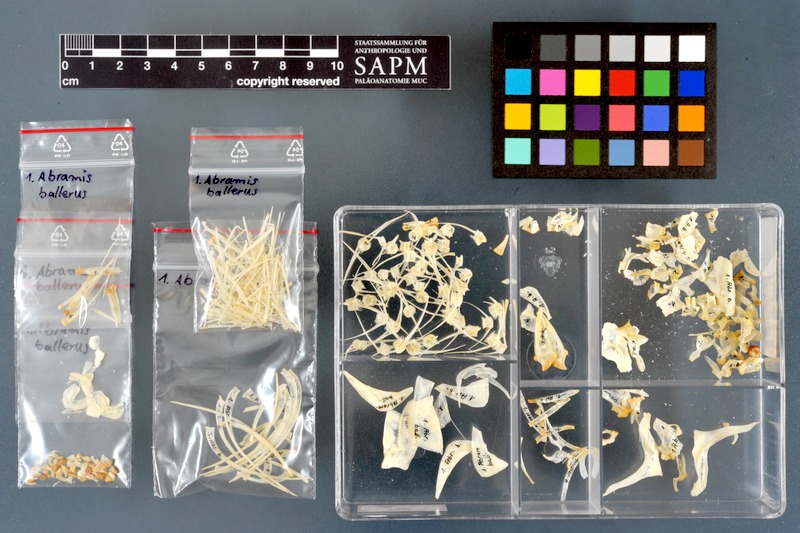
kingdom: Animalia
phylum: Chordata
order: Cypriniformes
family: Cyprinidae
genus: Ballerus
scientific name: Ballerus ballerus
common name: Blue bream
